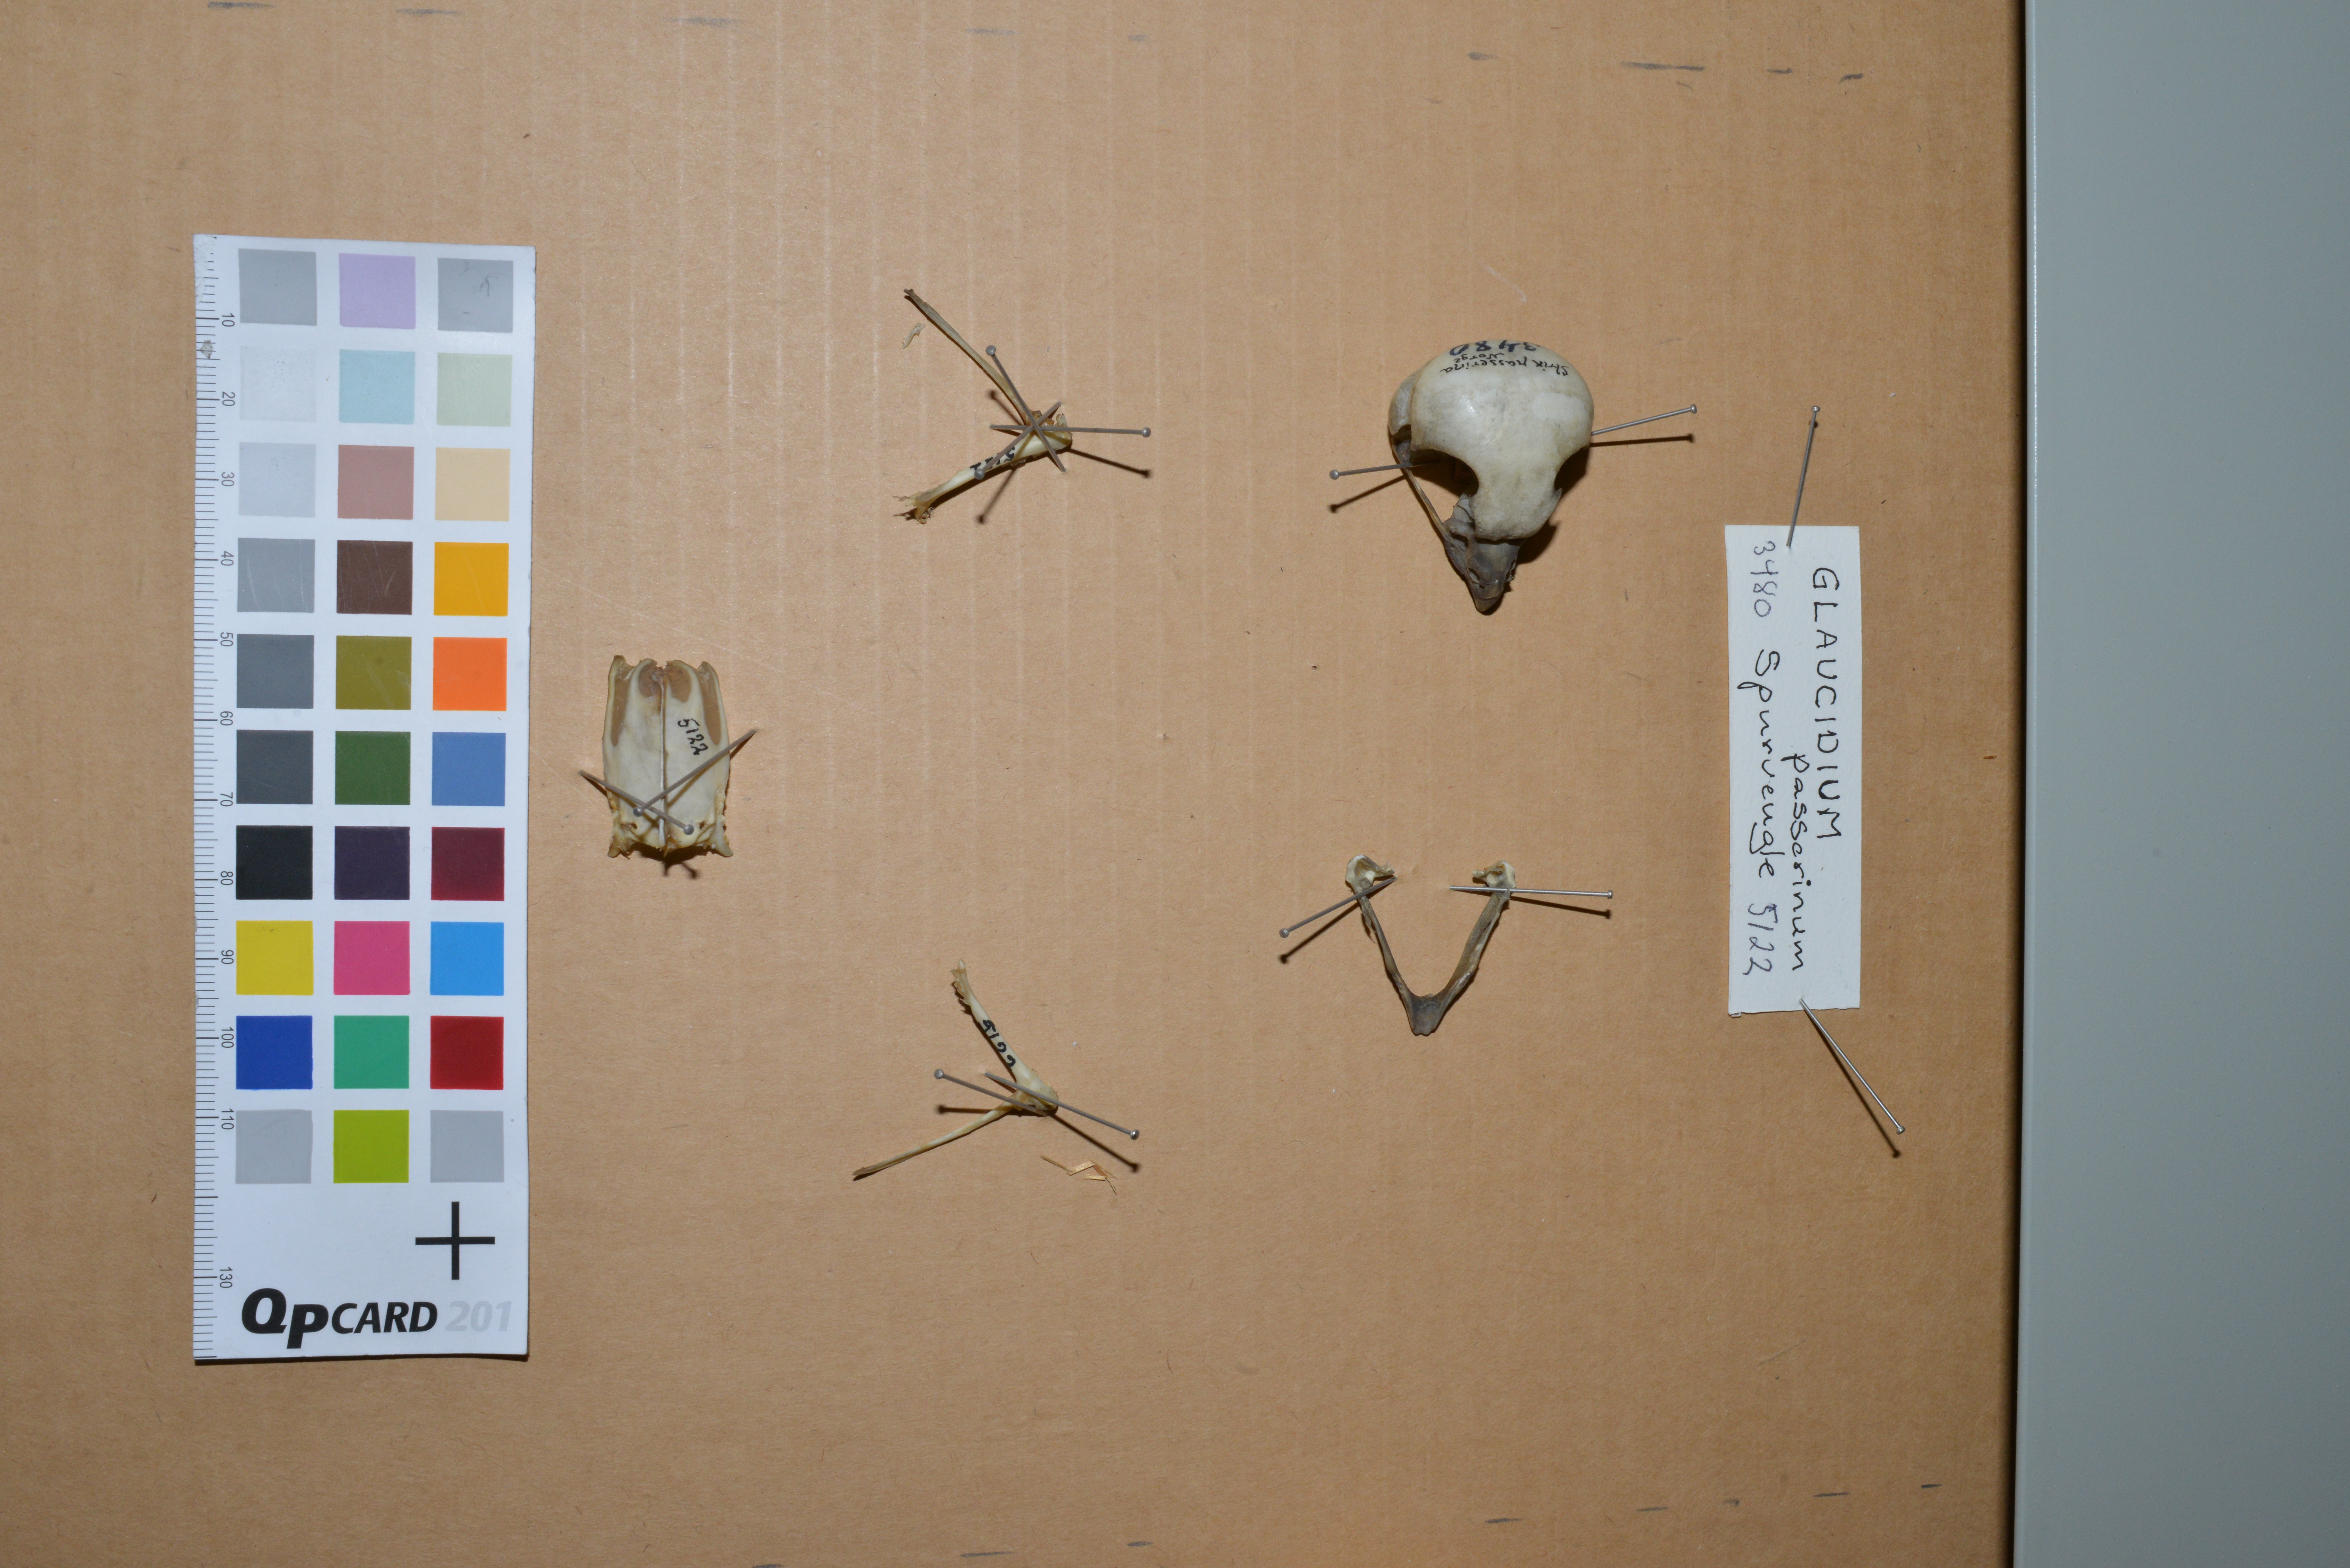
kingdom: Animalia
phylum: Chordata
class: Aves
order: Strigiformes
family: Strigidae
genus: Glaucidium
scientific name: Glaucidium passerinum
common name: Eurasian pygmy owl
